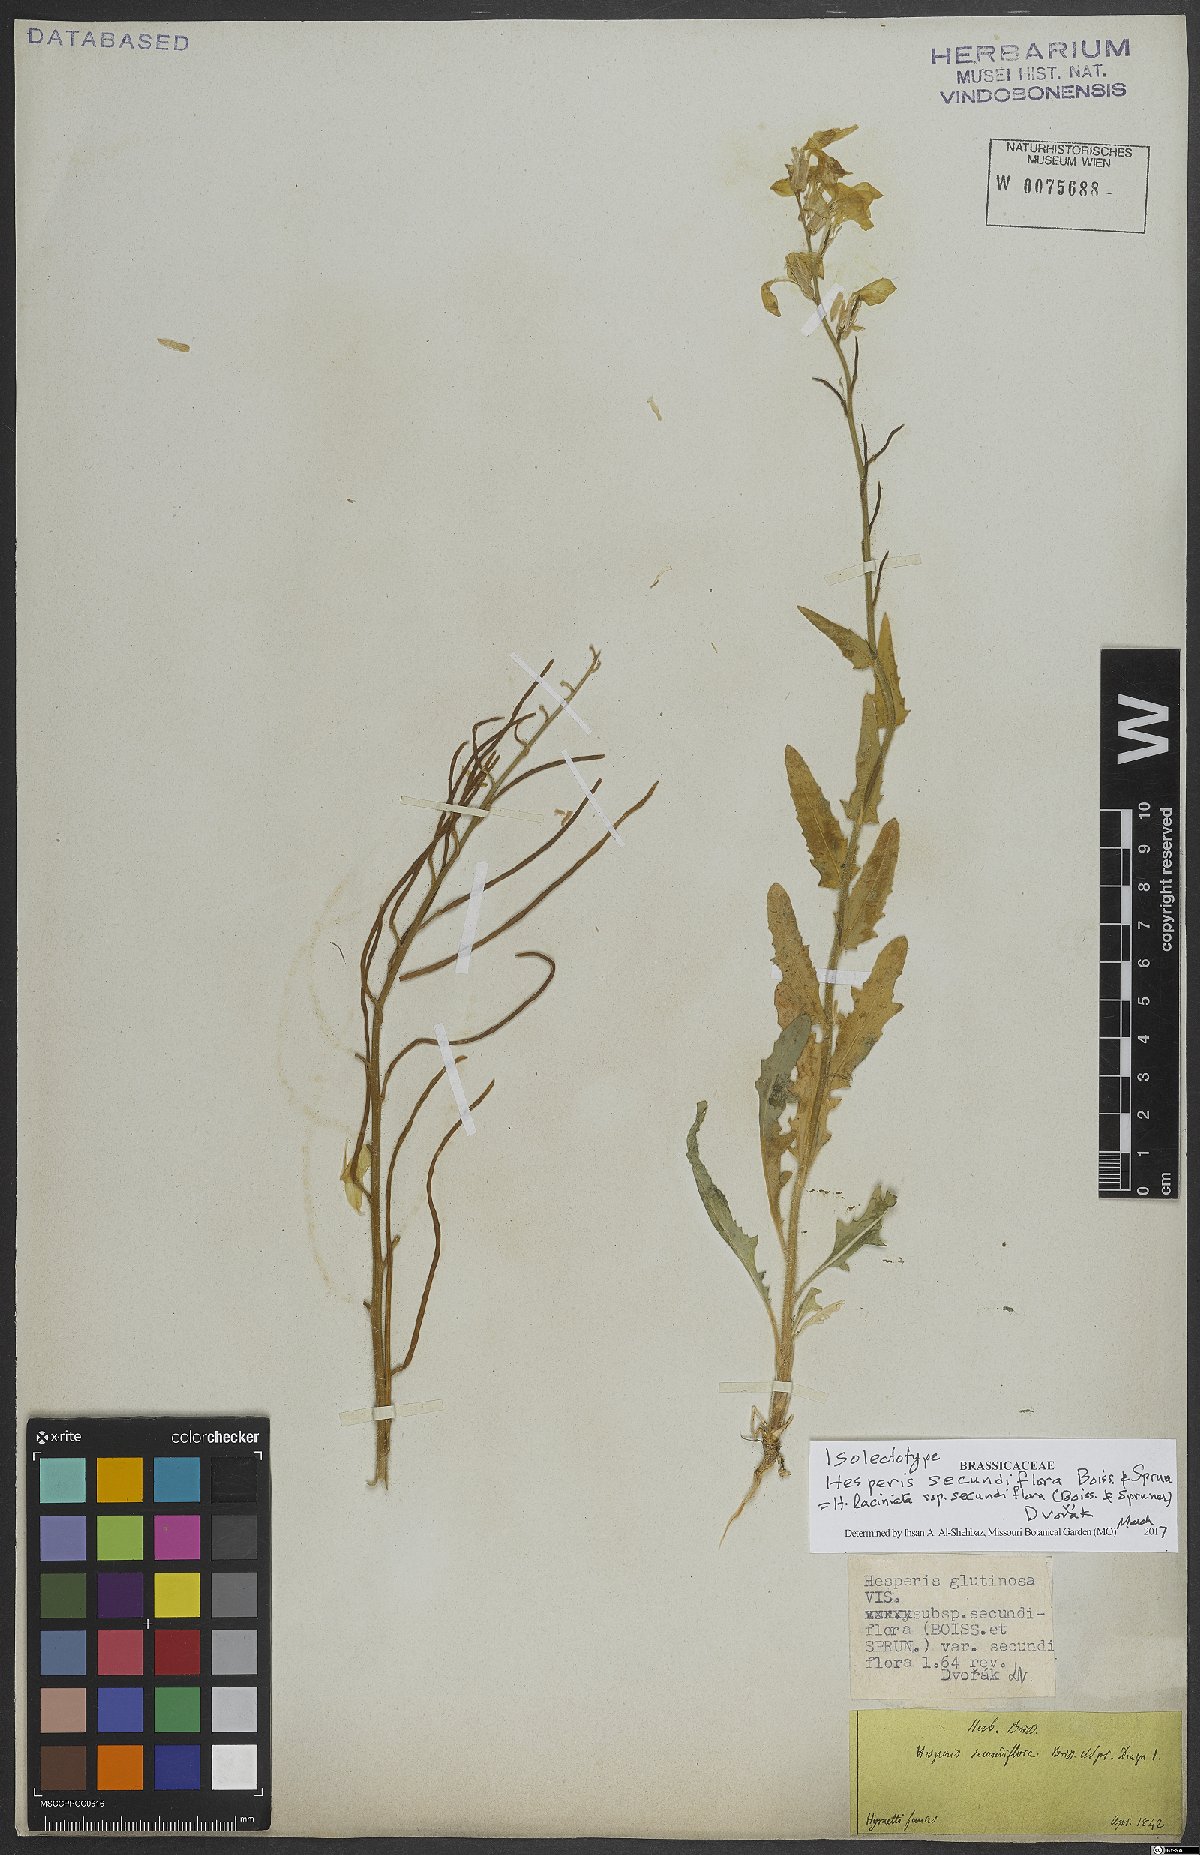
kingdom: Plantae
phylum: Tracheophyta
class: Magnoliopsida
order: Brassicales
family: Brassicaceae
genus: Hesperis
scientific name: Hesperis laciniata
